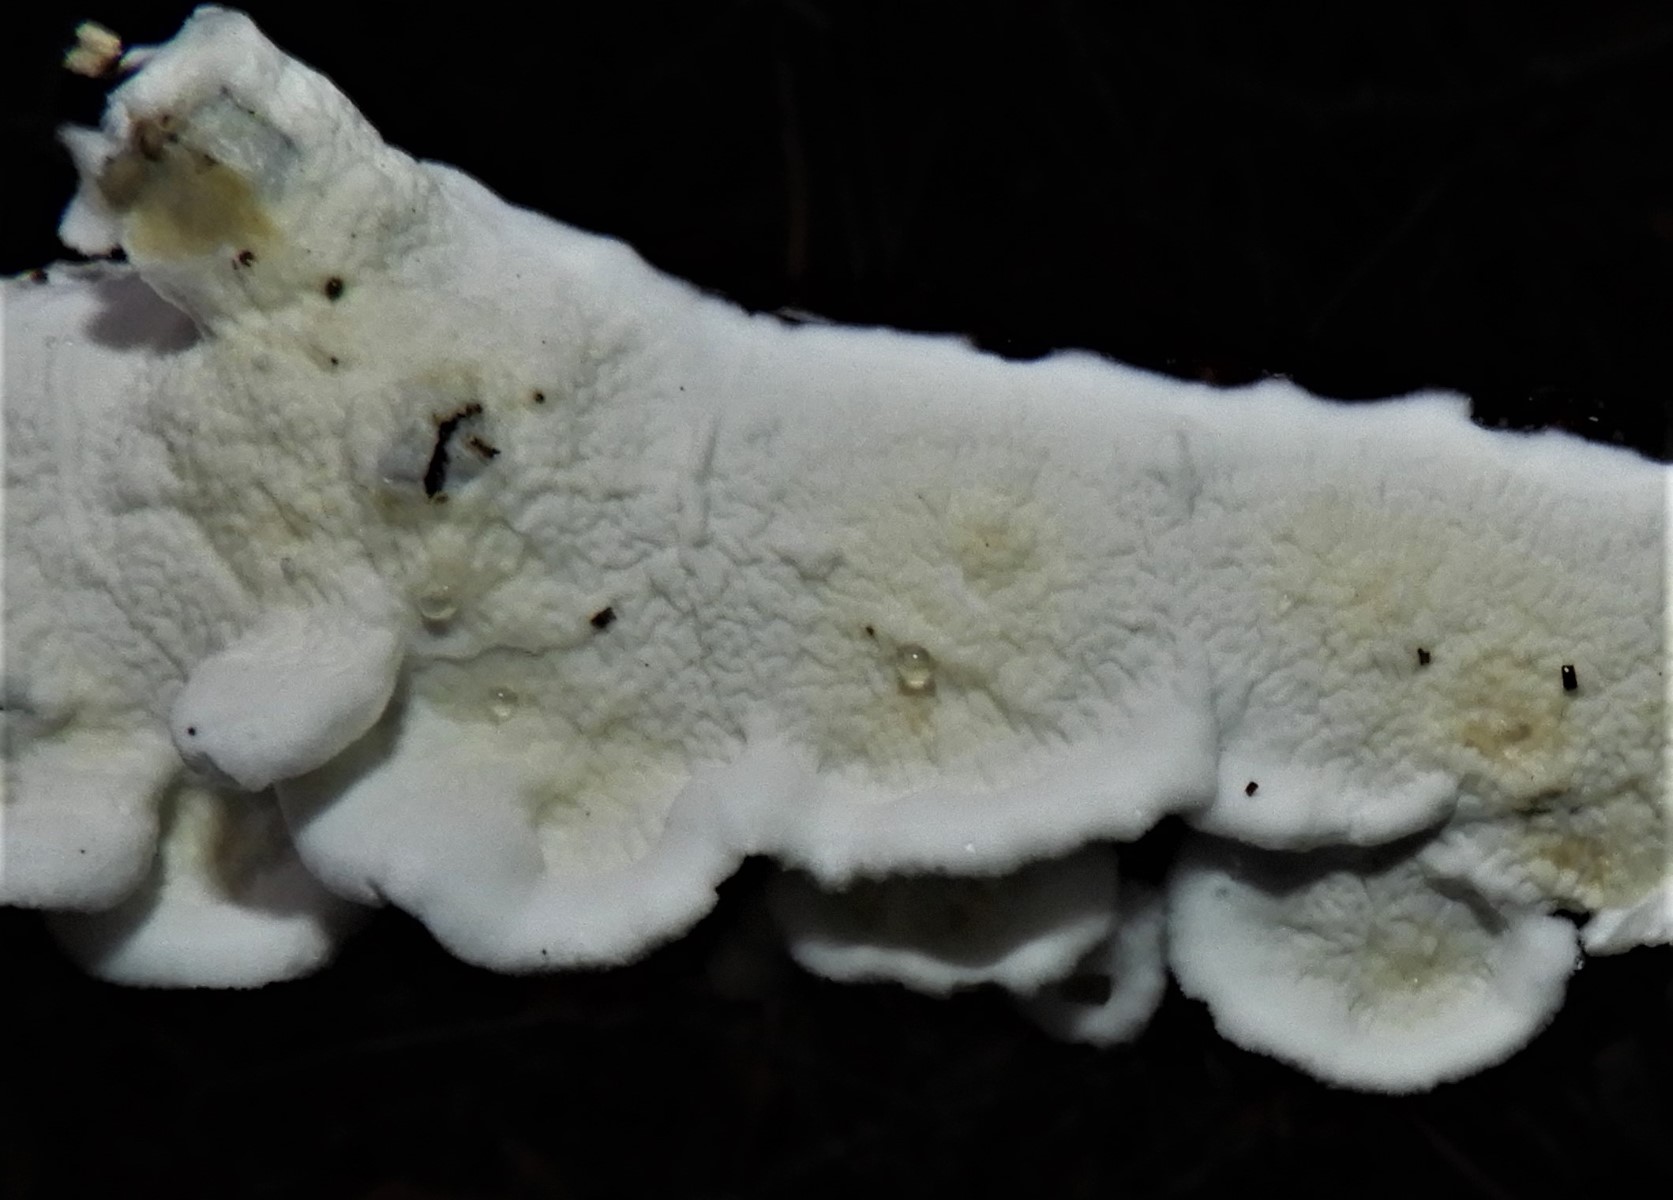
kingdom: Fungi
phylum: Basidiomycota
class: Agaricomycetes
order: Polyporales
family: Irpicaceae
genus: Byssomerulius
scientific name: Byssomerulius corium
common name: læder-åresvamp
